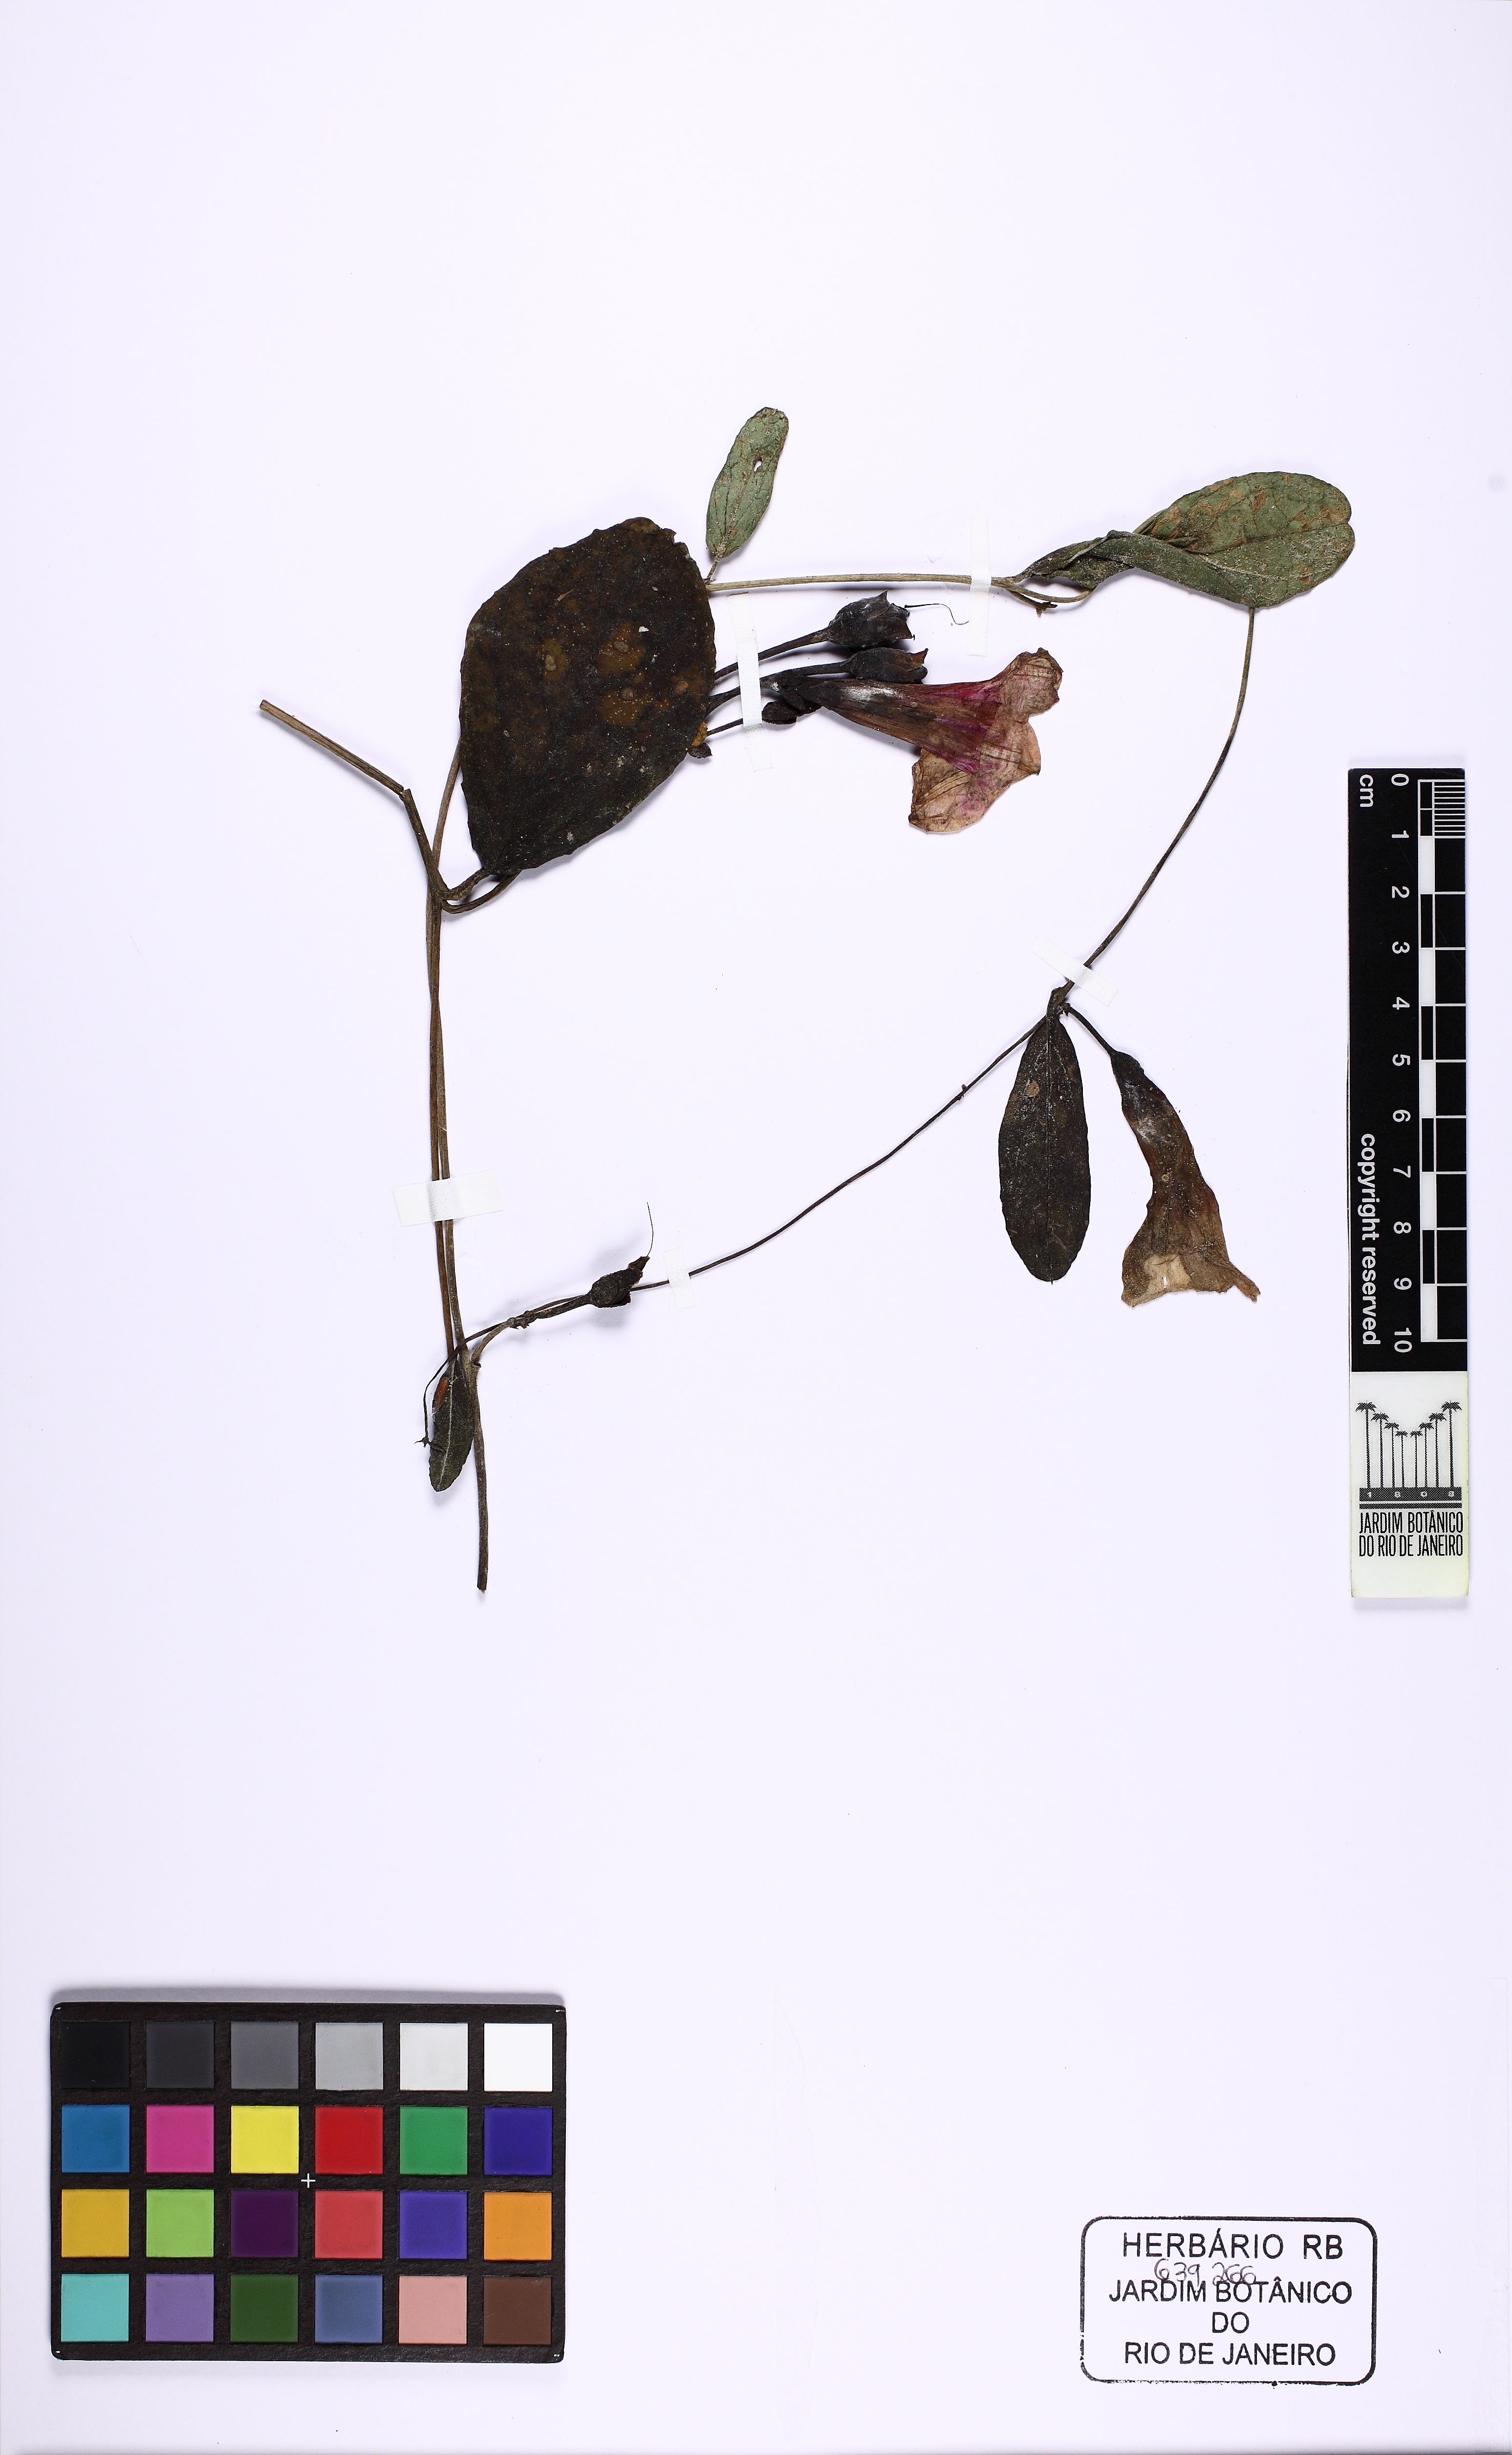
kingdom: Plantae
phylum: Tracheophyta
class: Magnoliopsida
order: Solanales
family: Convolvulaceae
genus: Ipomoea
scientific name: Ipomoea procurrens
